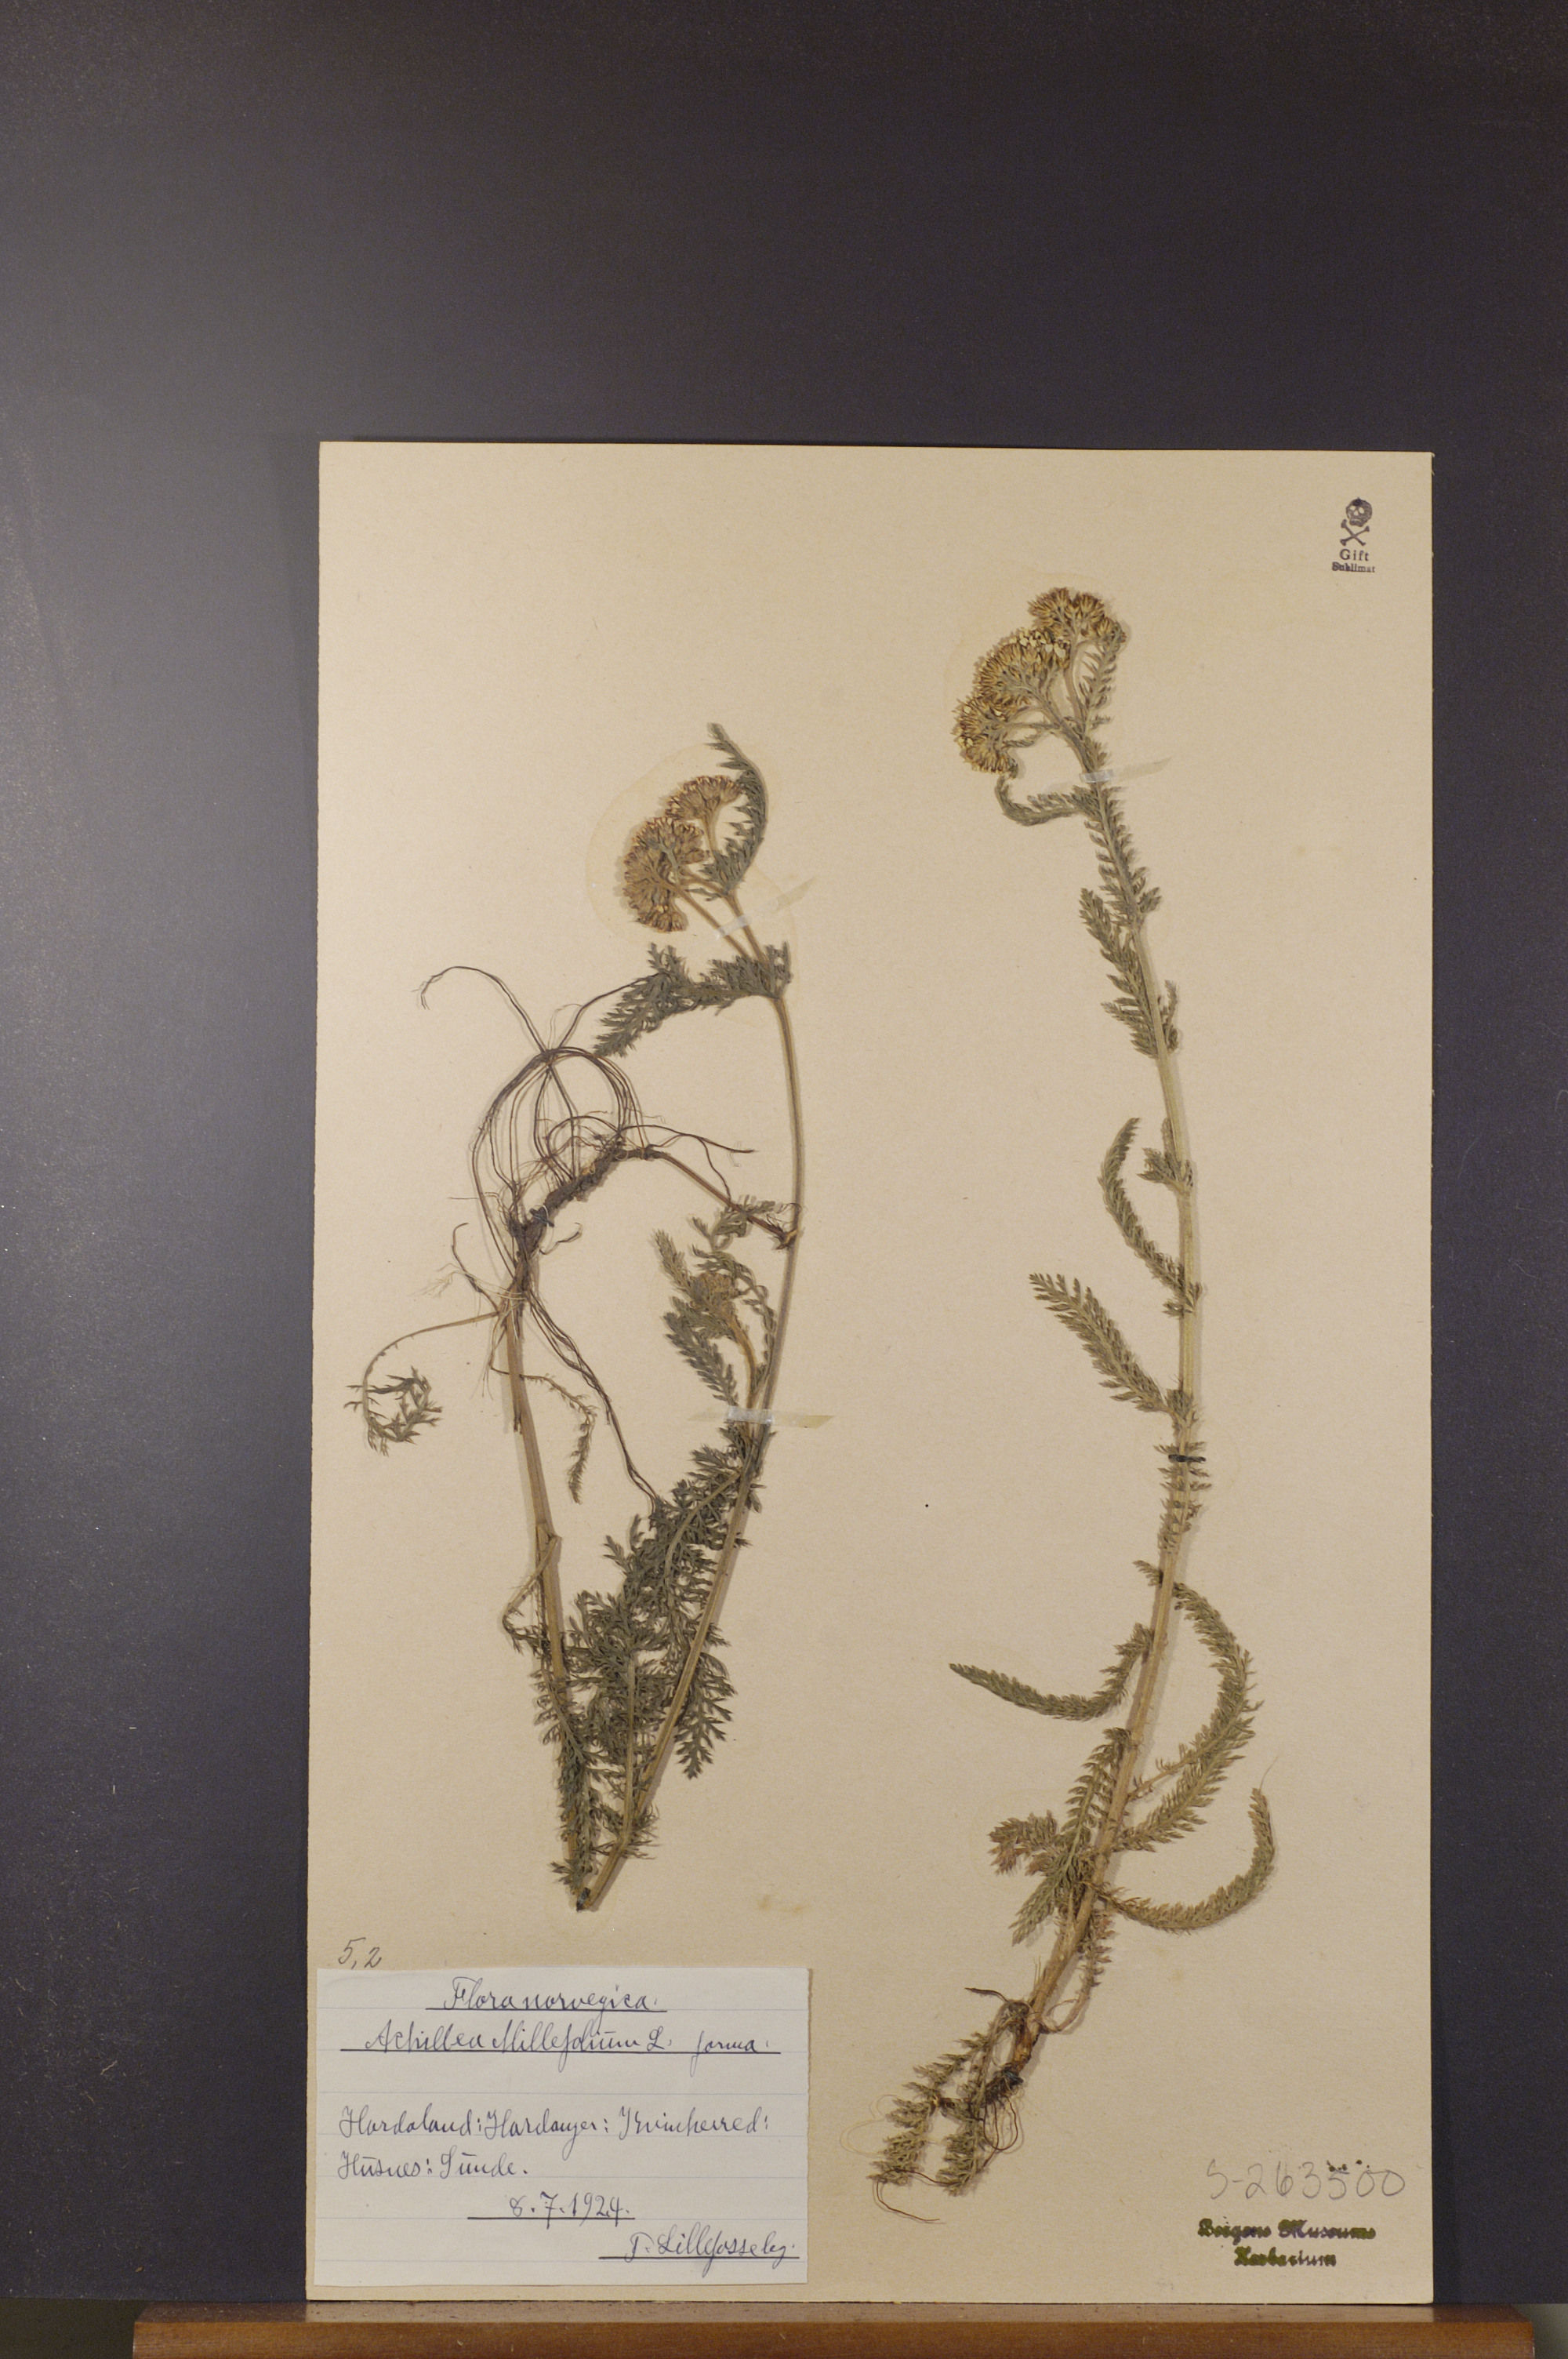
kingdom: Plantae
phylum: Tracheophyta
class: Magnoliopsida
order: Asterales
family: Asteraceae
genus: Achillea
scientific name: Achillea millefolium
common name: Yarrow
